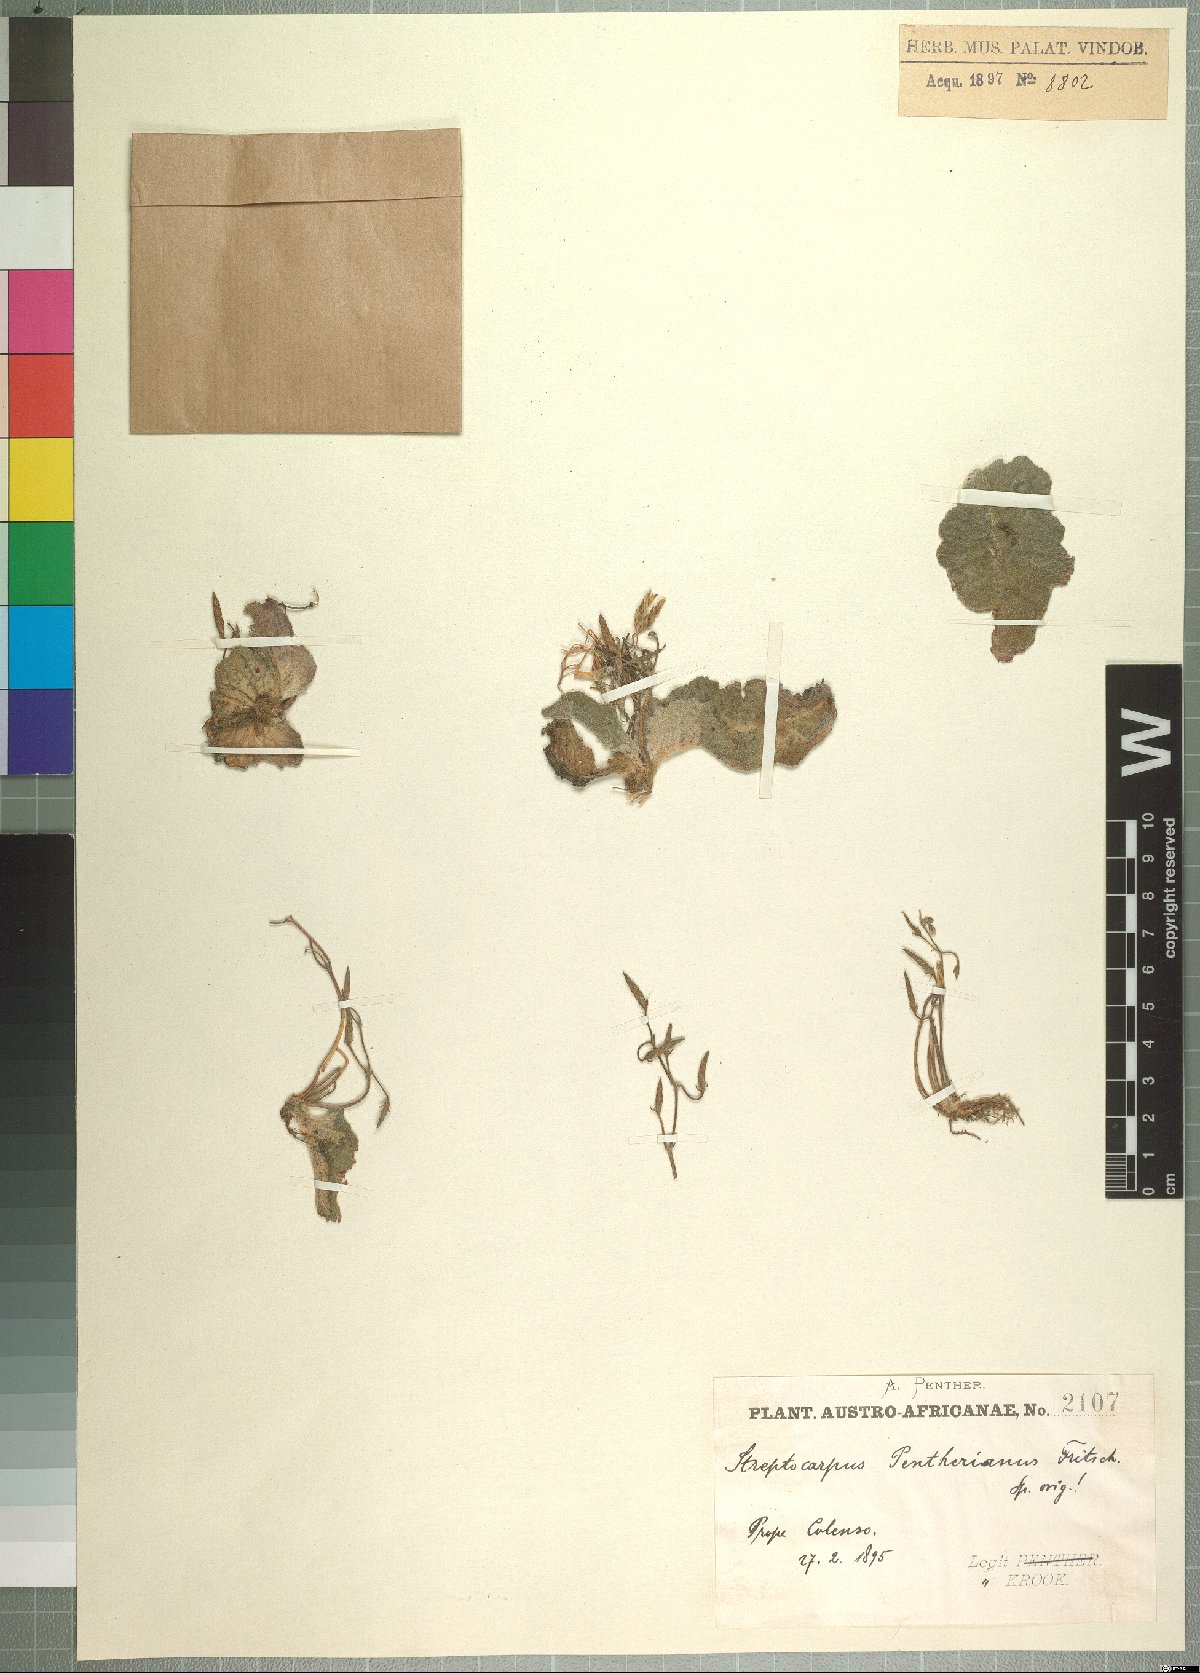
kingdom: Plantae
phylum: Tracheophyta
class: Magnoliopsida
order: Lamiales
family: Gesneriaceae
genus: Streptocarpus
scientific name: Streptocarpus pentherianus
